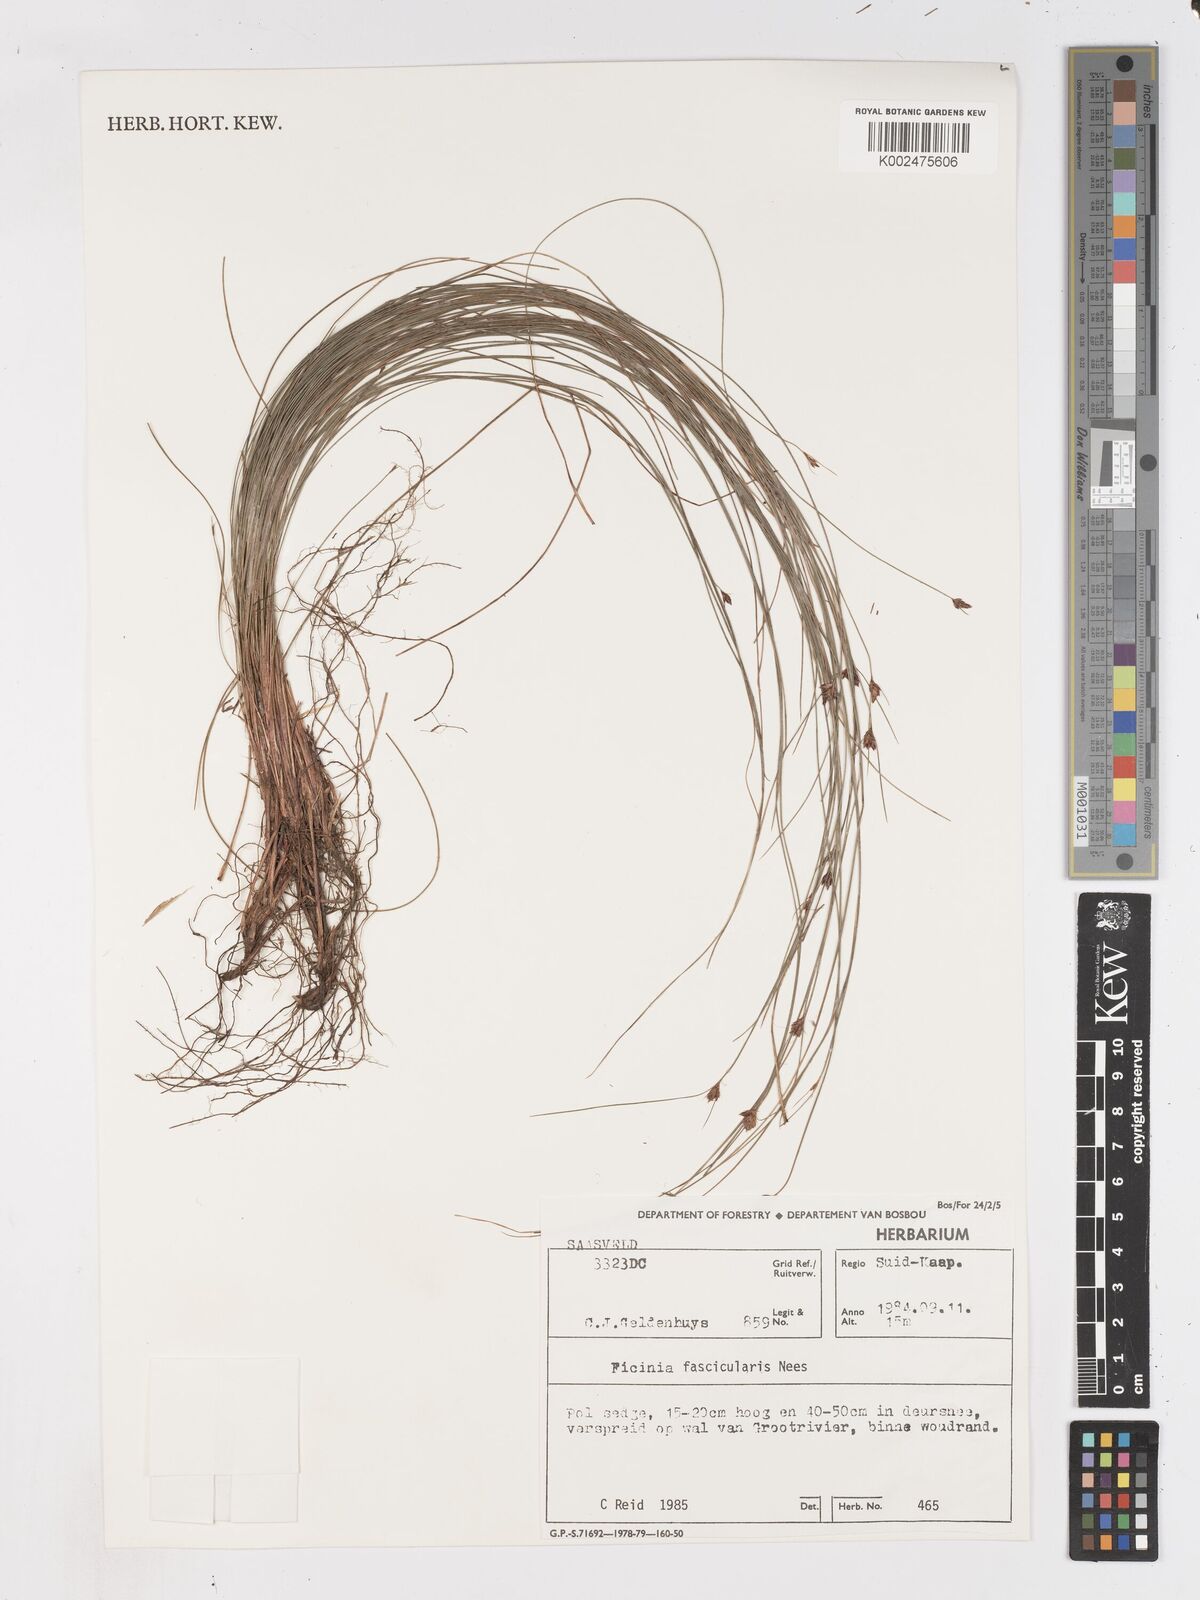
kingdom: Plantae
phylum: Tracheophyta
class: Liliopsida
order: Poales
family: Cyperaceae
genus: Ficinia
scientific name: Ficinia fascicularis
